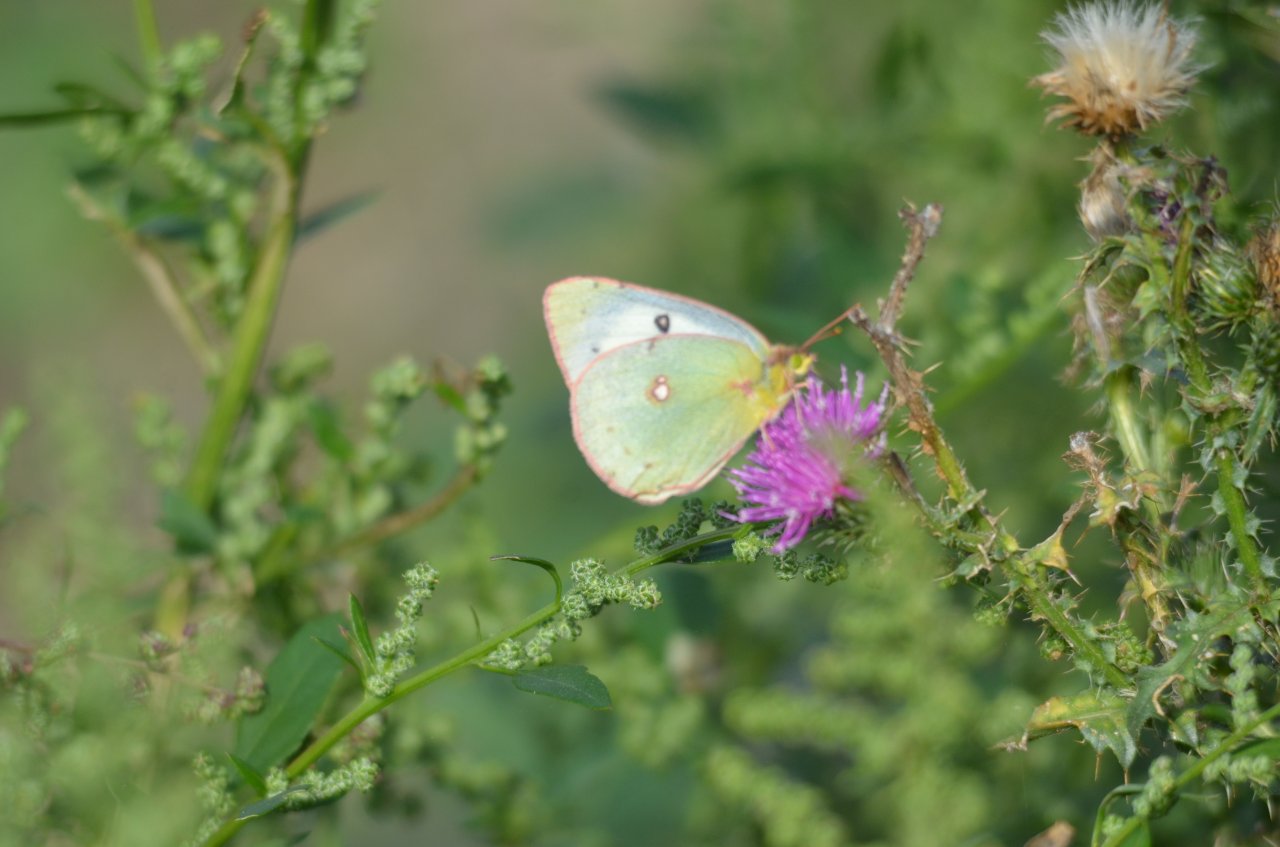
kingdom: Animalia
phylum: Arthropoda
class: Insecta
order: Lepidoptera
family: Pieridae
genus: Colias
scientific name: Colias philodice
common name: Clouded Sulphur
